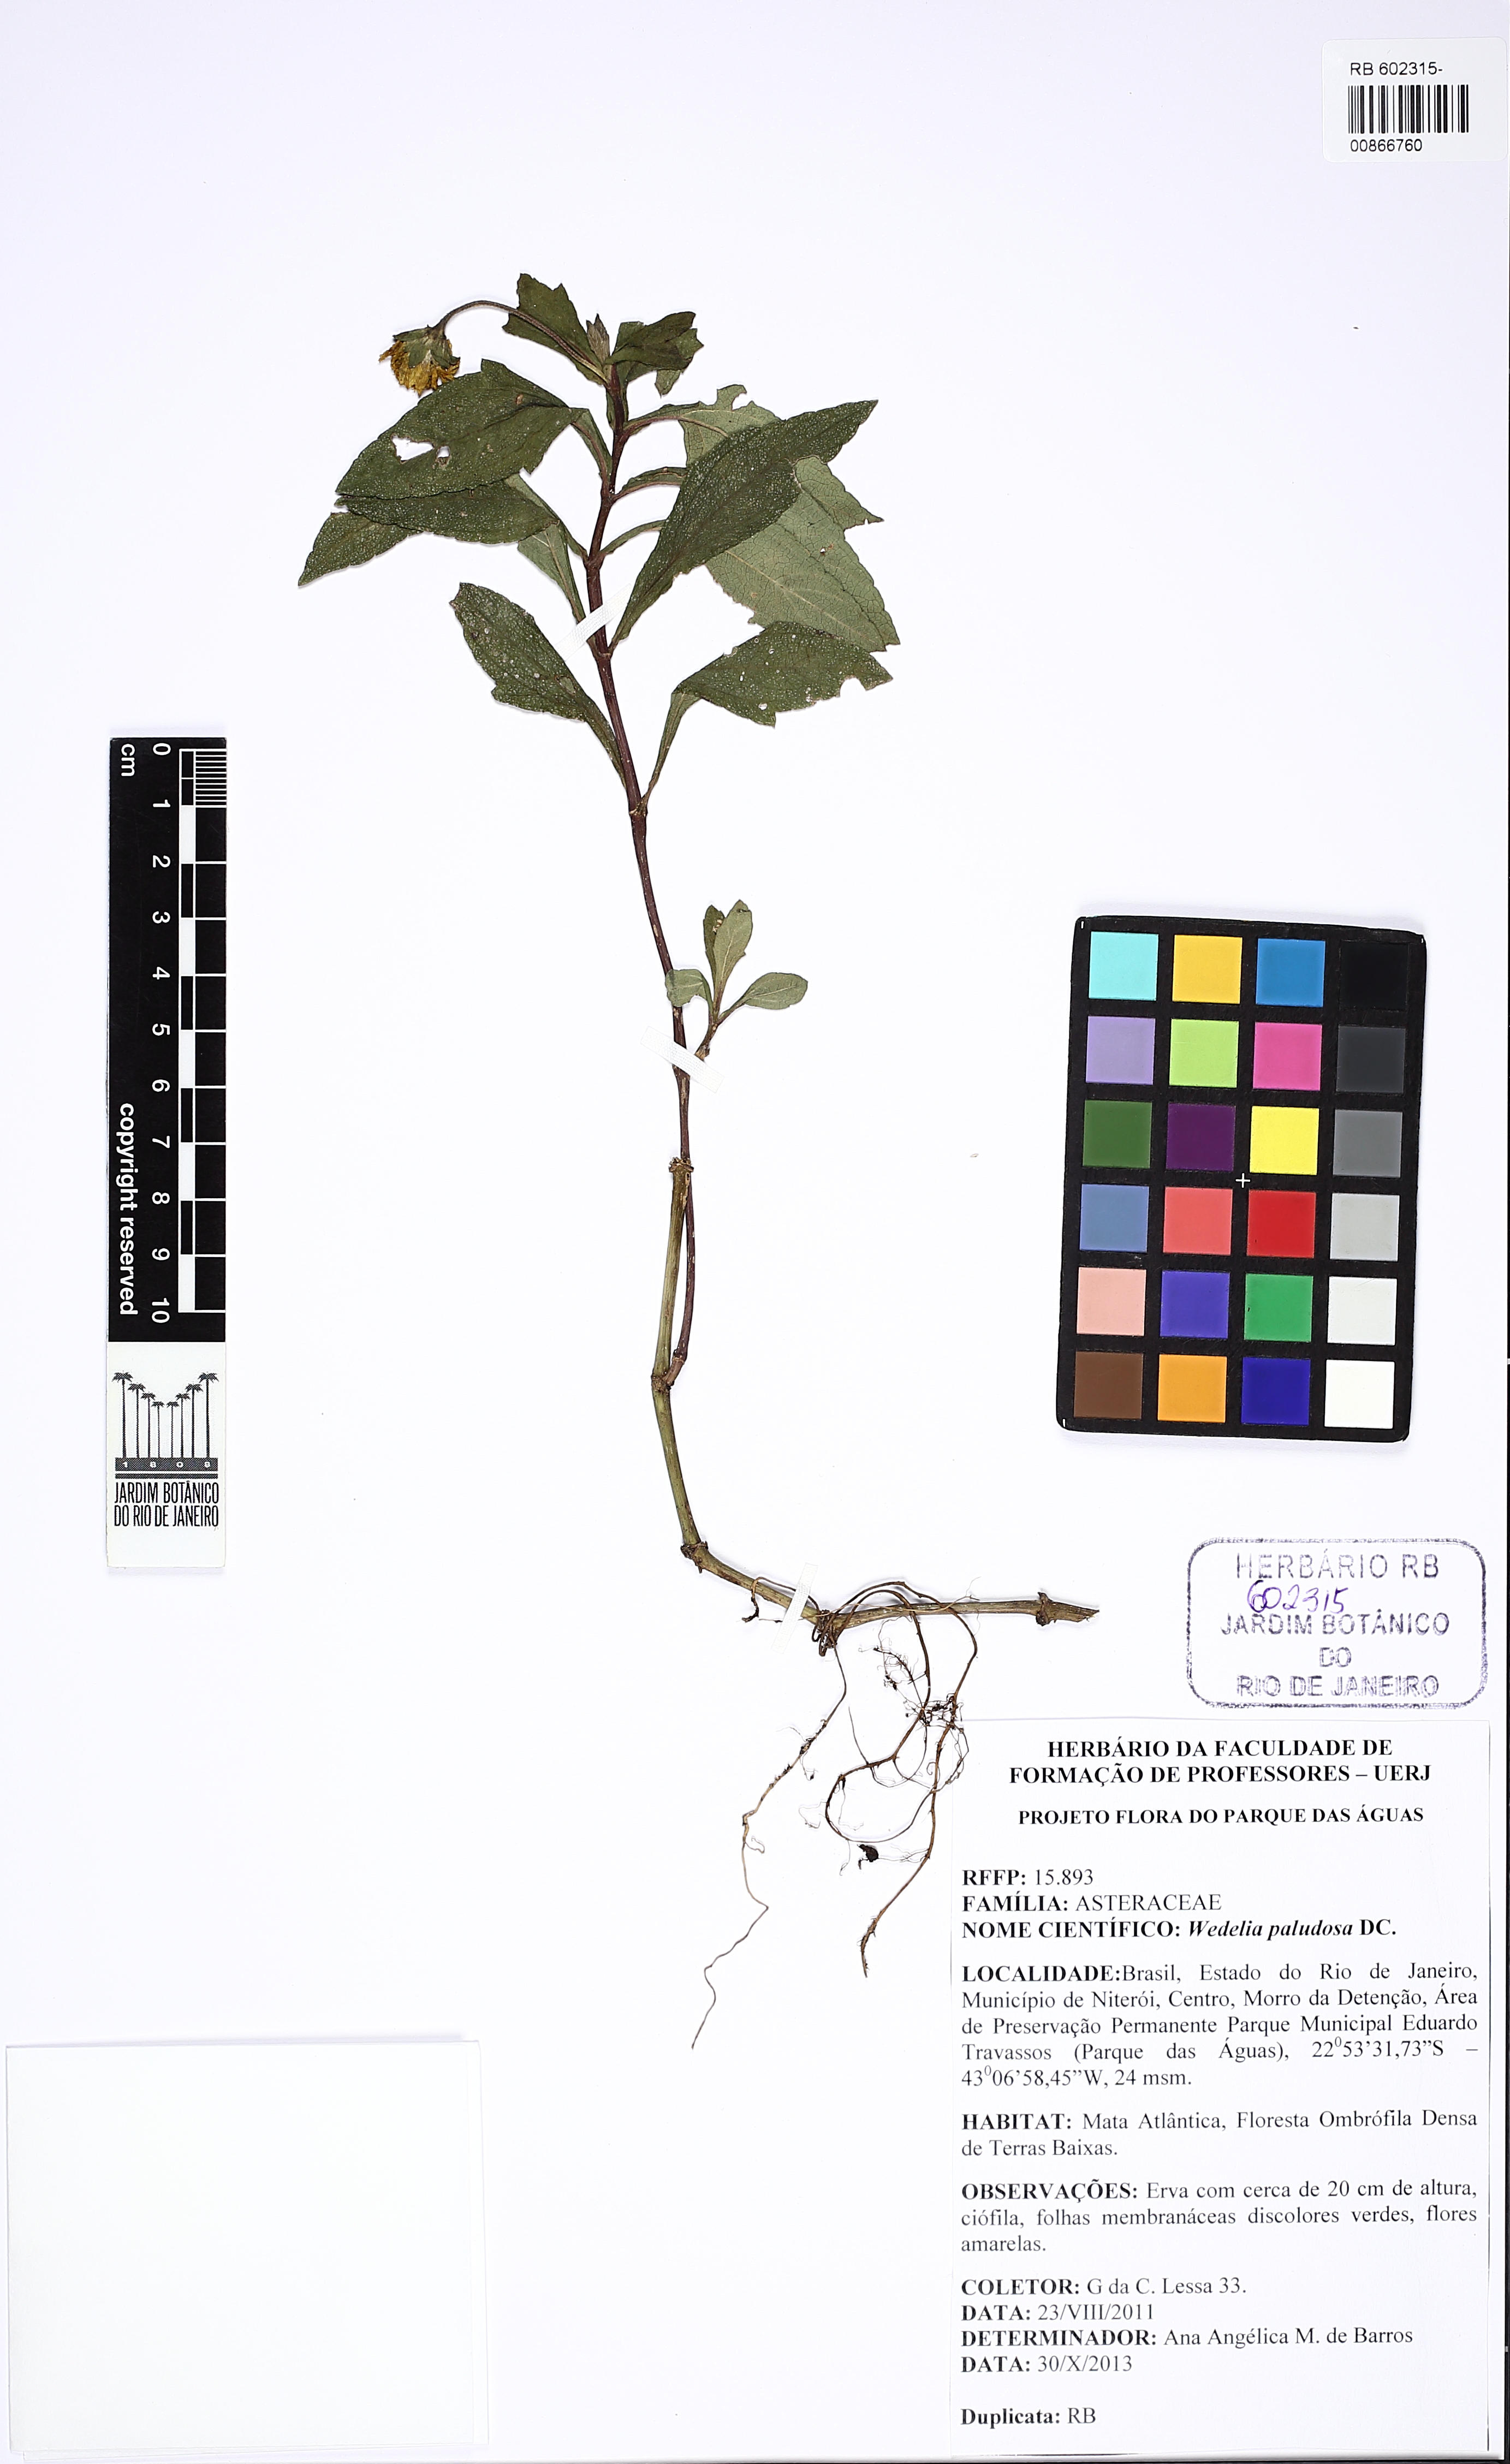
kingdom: Plantae
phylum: Tracheophyta
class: Magnoliopsida
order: Asterales
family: Asteraceae
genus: Sphagneticola
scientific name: Sphagneticola trilobata
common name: Bay biscayne creeping-oxeye
